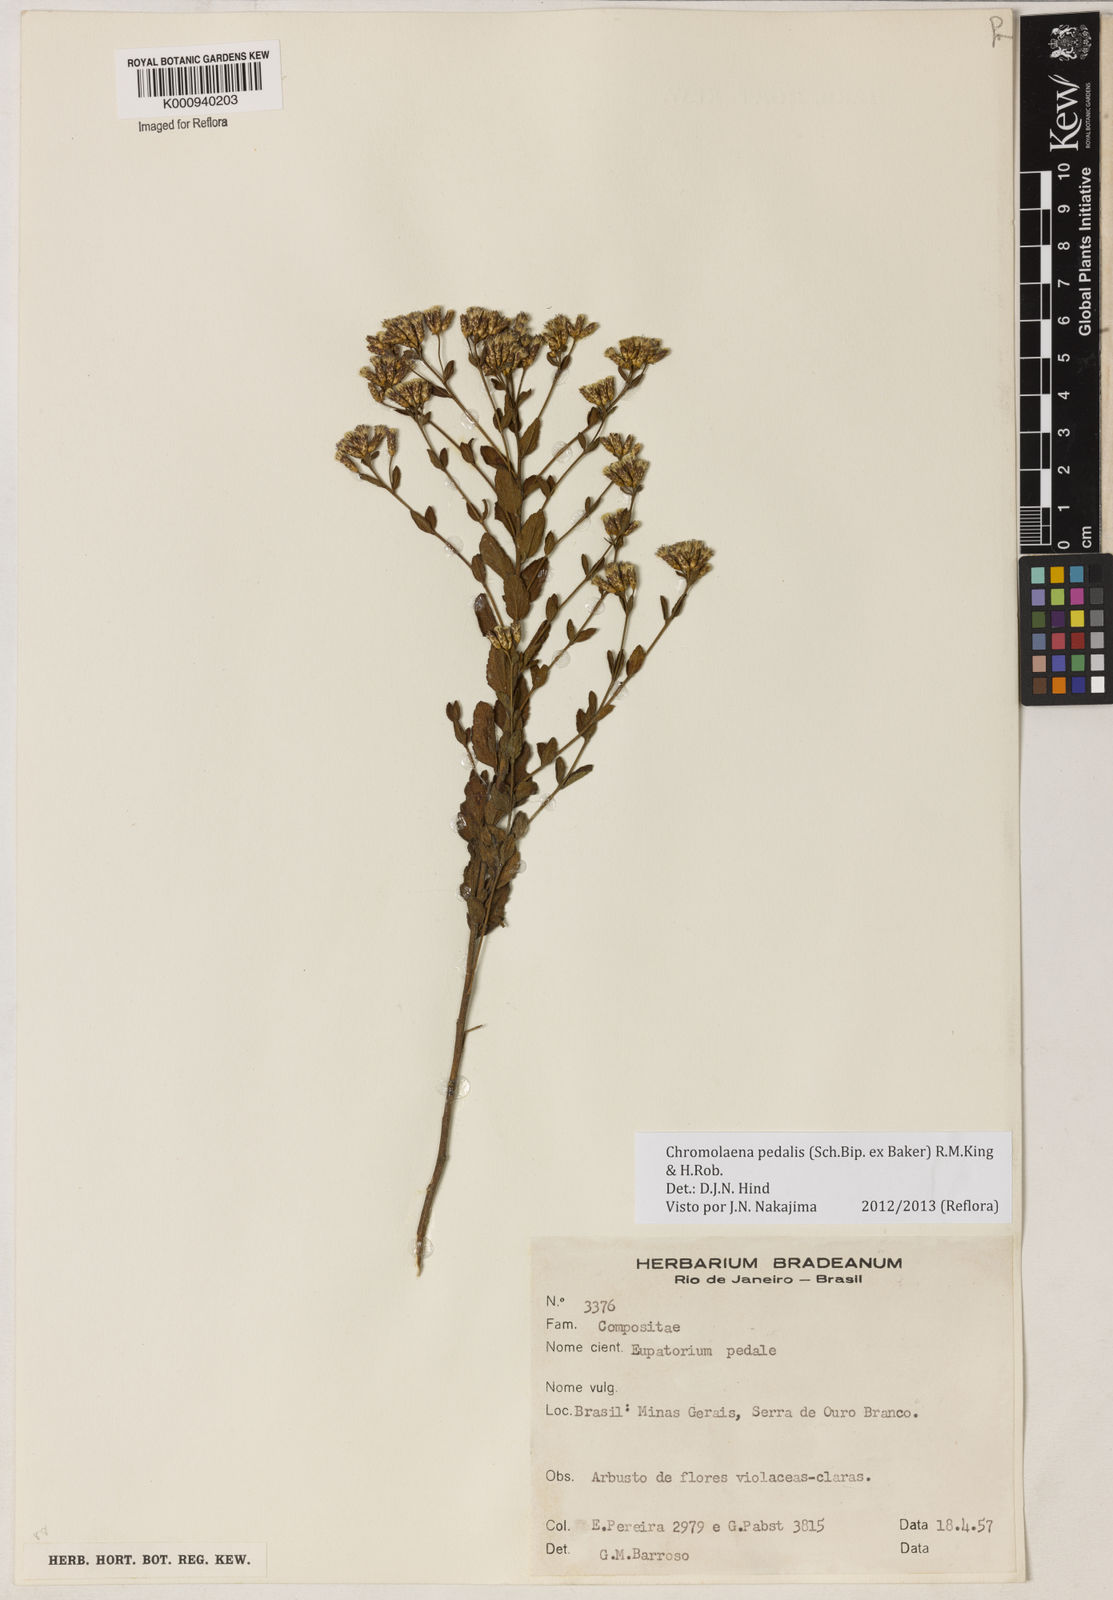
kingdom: Plantae
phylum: Tracheophyta
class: Magnoliopsida
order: Asterales
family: Asteraceae
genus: Chromolaena
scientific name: Chromolaena pedalis
